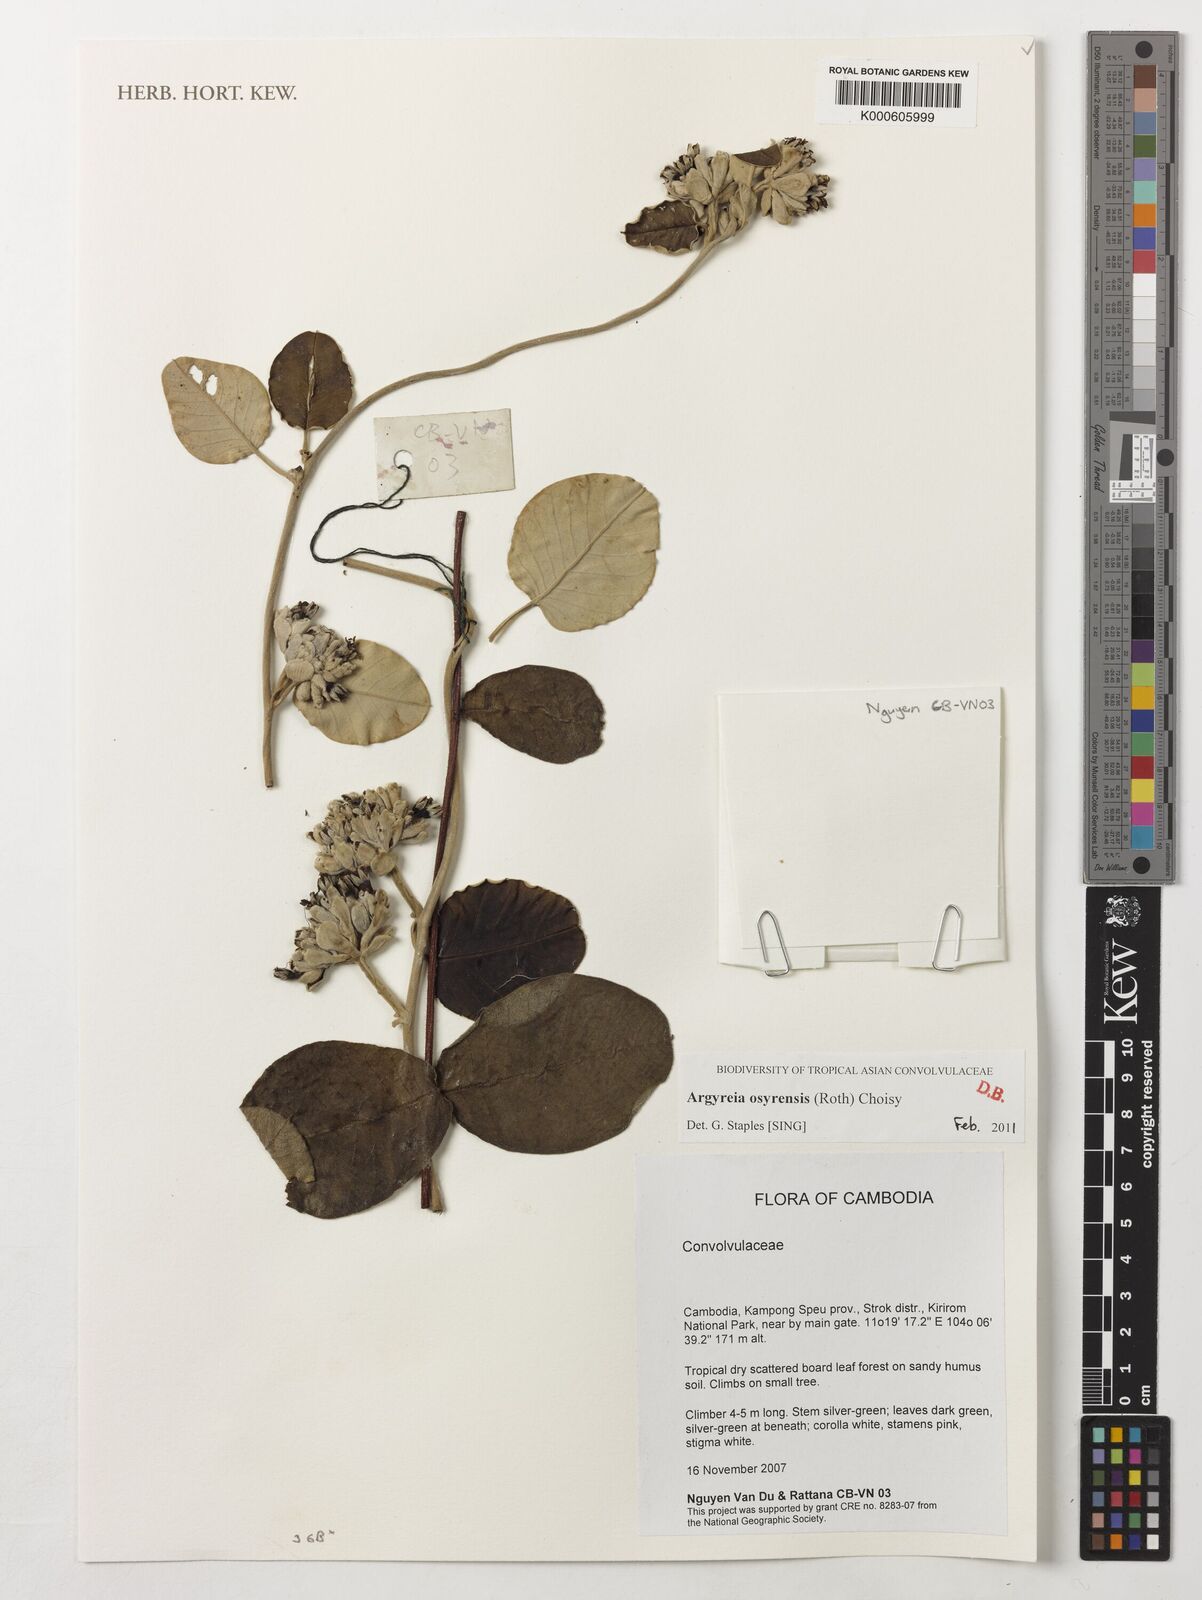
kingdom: Plantae
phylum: Tracheophyta
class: Magnoliopsida
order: Solanales
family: Convolvulaceae
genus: Argyreia
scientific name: Argyreia osyrensis
